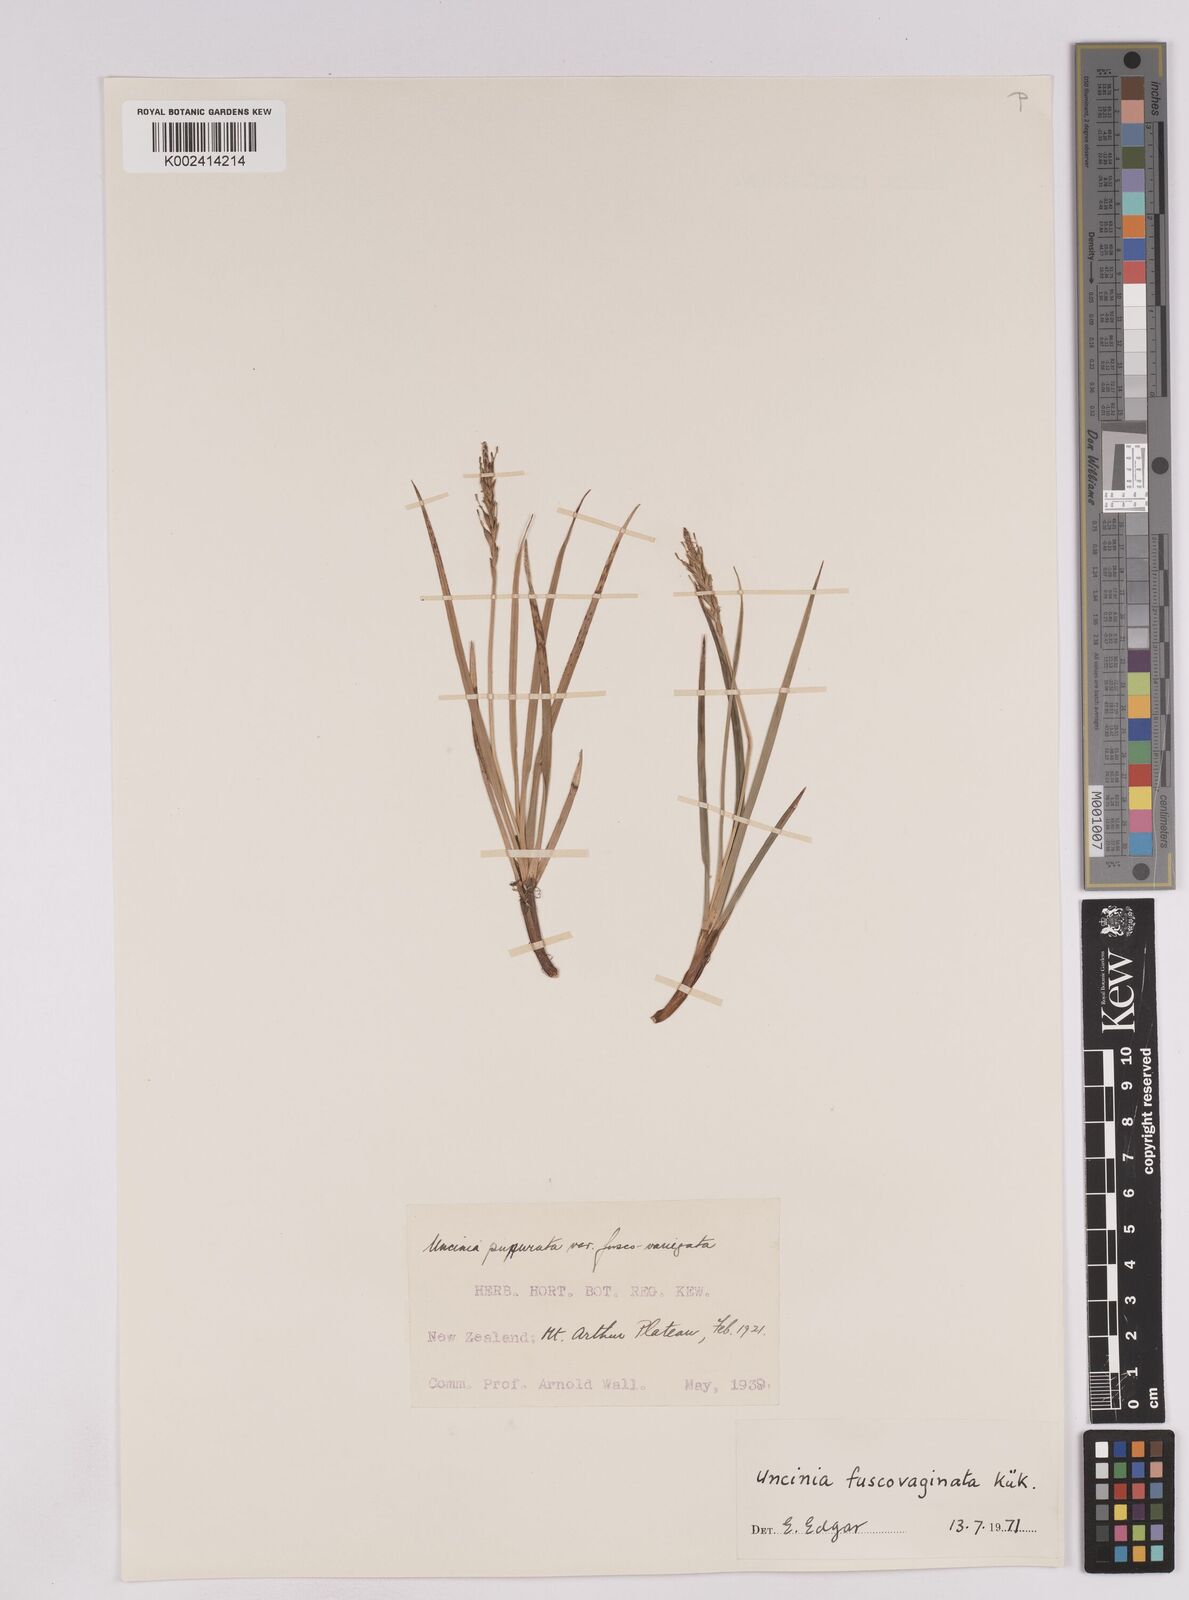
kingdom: Plantae
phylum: Tracheophyta
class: Liliopsida
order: Poales
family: Cyperaceae
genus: Carex
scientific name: Carex penalpina
